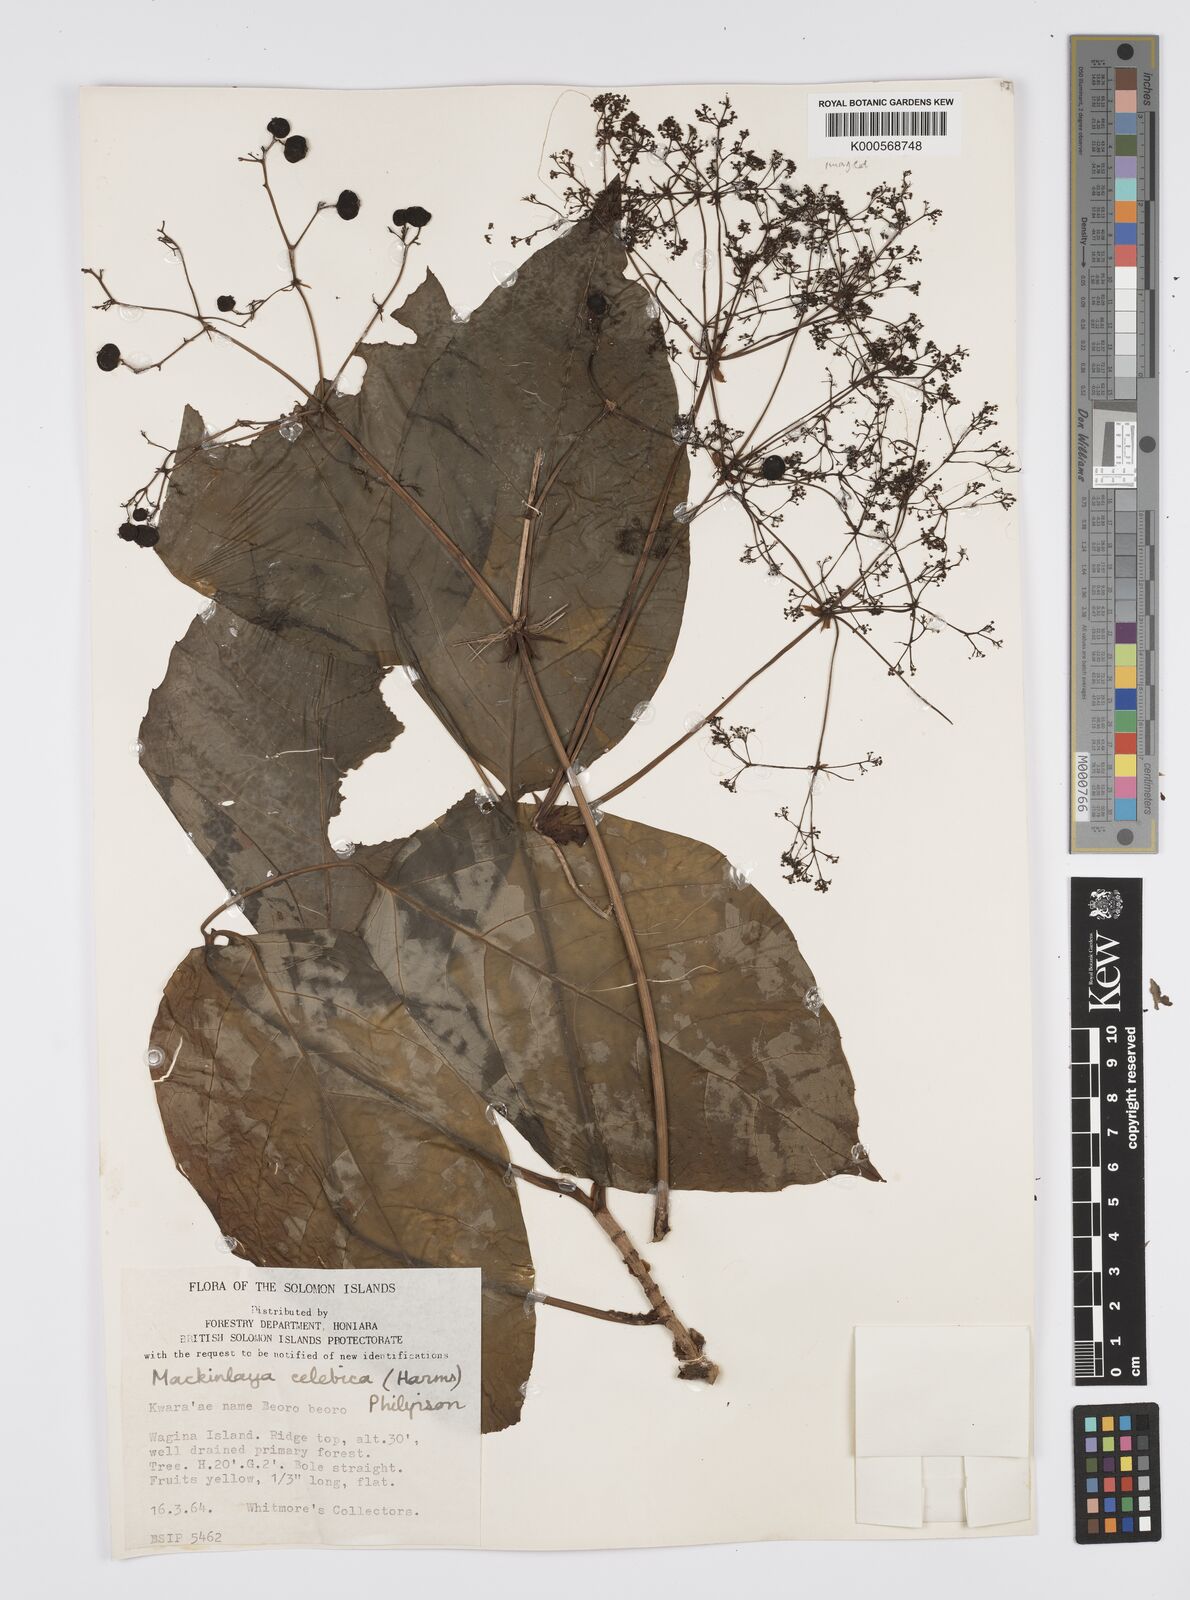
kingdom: Plantae
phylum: Tracheophyta
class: Magnoliopsida
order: Apiales
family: Apiaceae
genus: Mackinlaya
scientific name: Mackinlaya celebica
